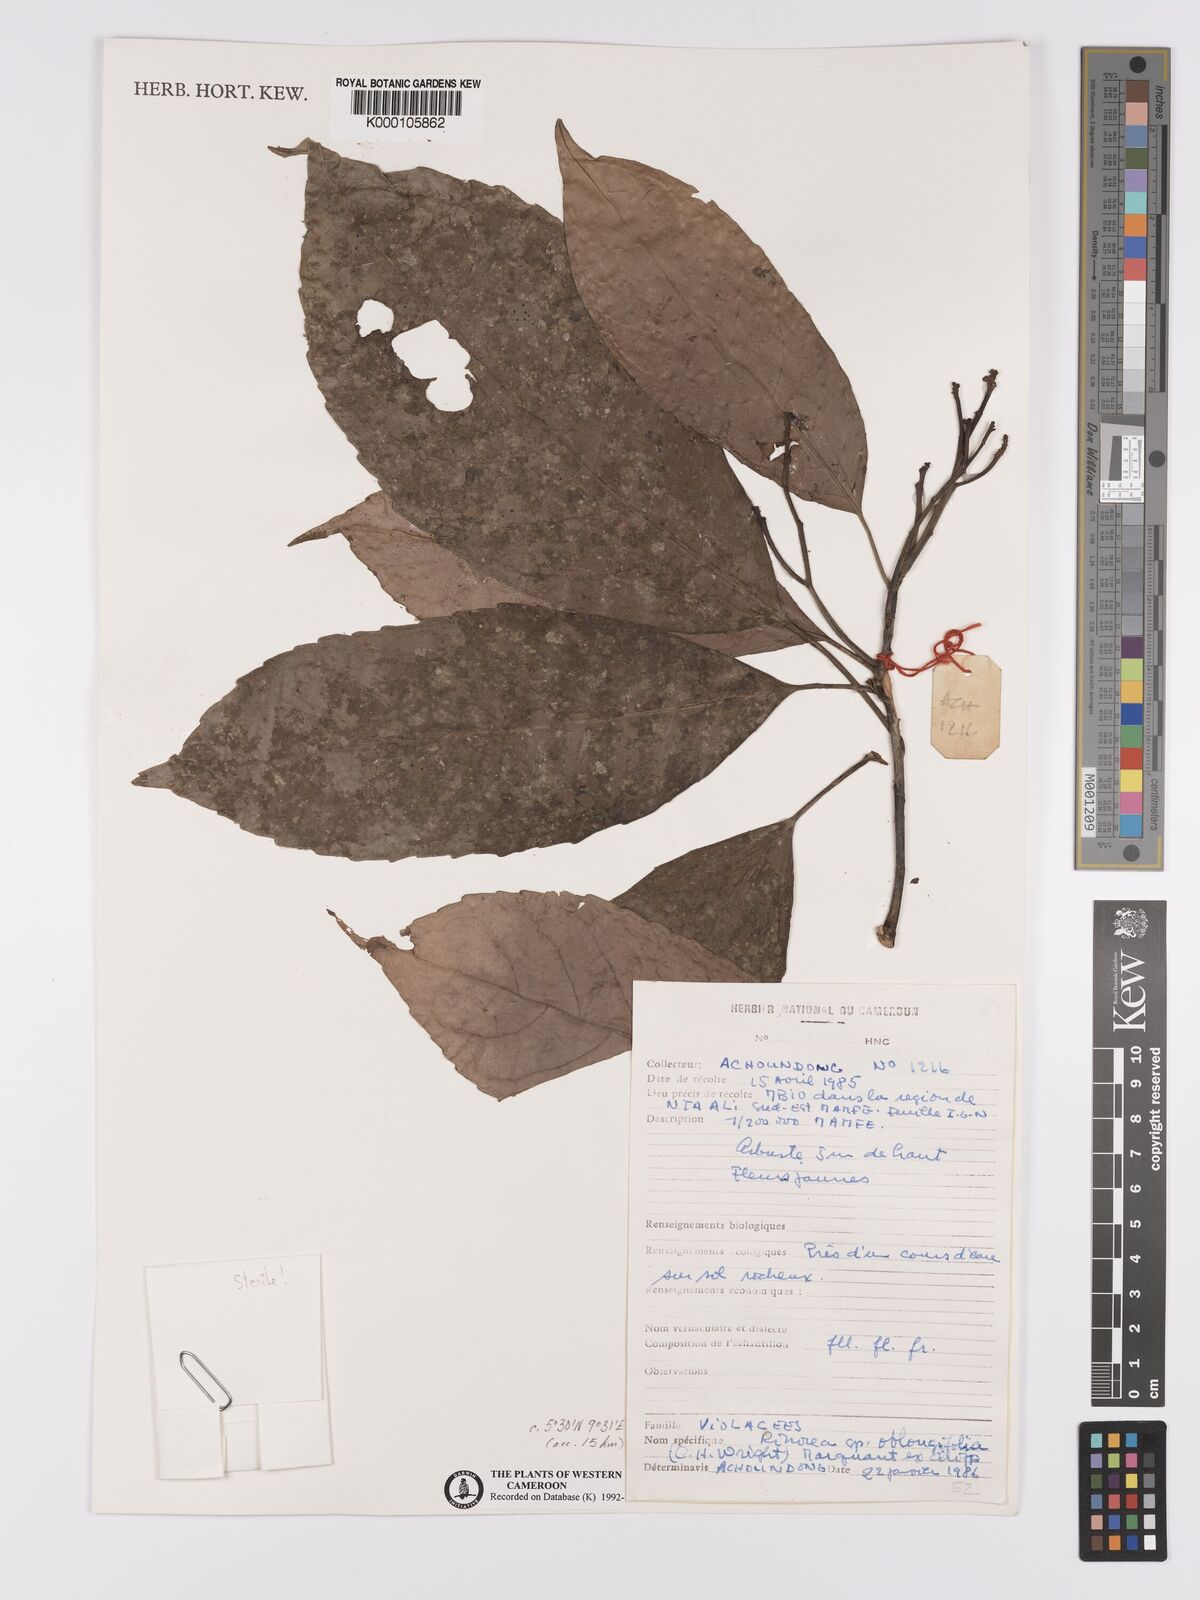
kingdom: Plantae
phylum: Tracheophyta
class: Magnoliopsida
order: Apiales
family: Pittosporaceae
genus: Marianthus
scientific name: Marianthus coeruleopunctatus
